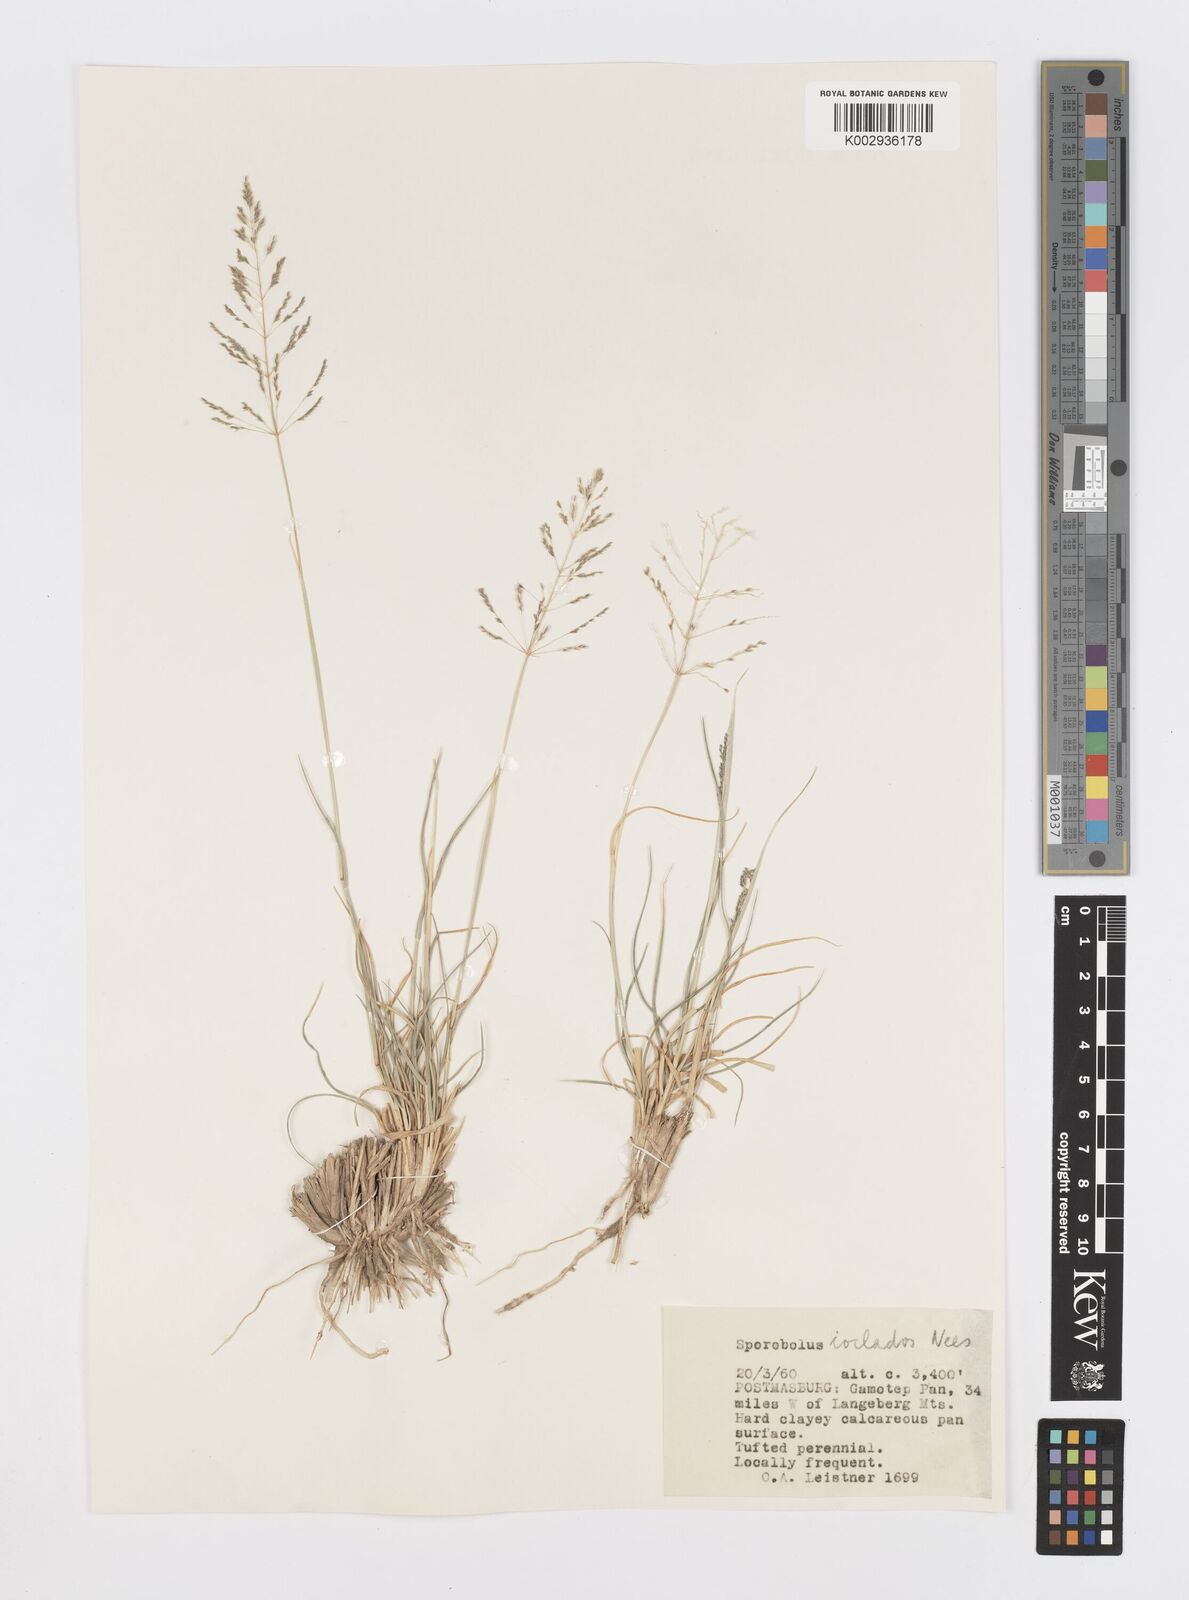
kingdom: Plantae
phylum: Tracheophyta
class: Liliopsida
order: Poales
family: Poaceae
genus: Sporobolus
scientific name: Sporobolus ioclados
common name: Pan dropseed
